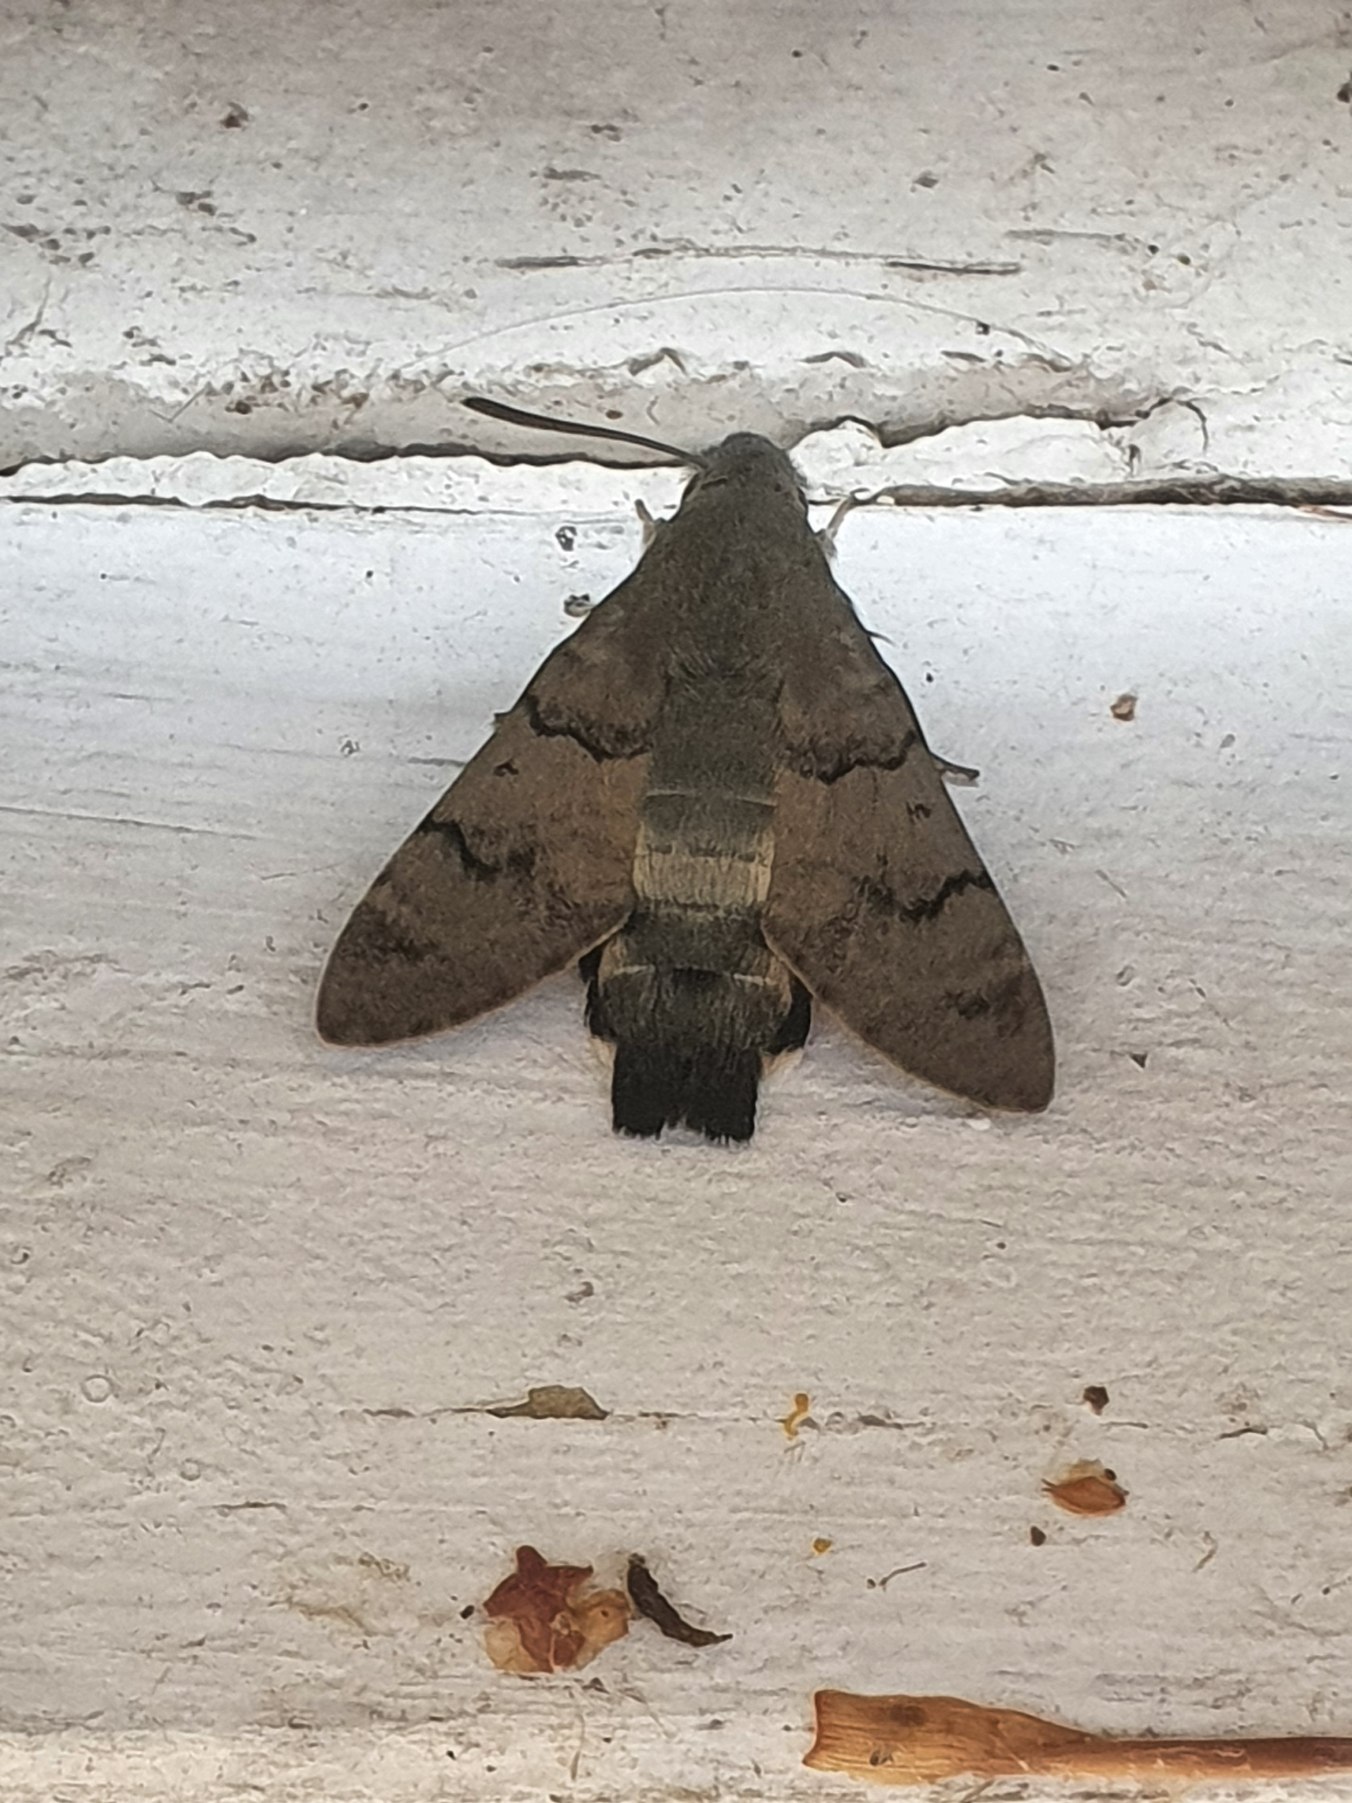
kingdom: Animalia
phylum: Arthropoda
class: Insecta
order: Lepidoptera
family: Sphingidae
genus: Macroglossum
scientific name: Macroglossum stellatarum
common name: Duehale
